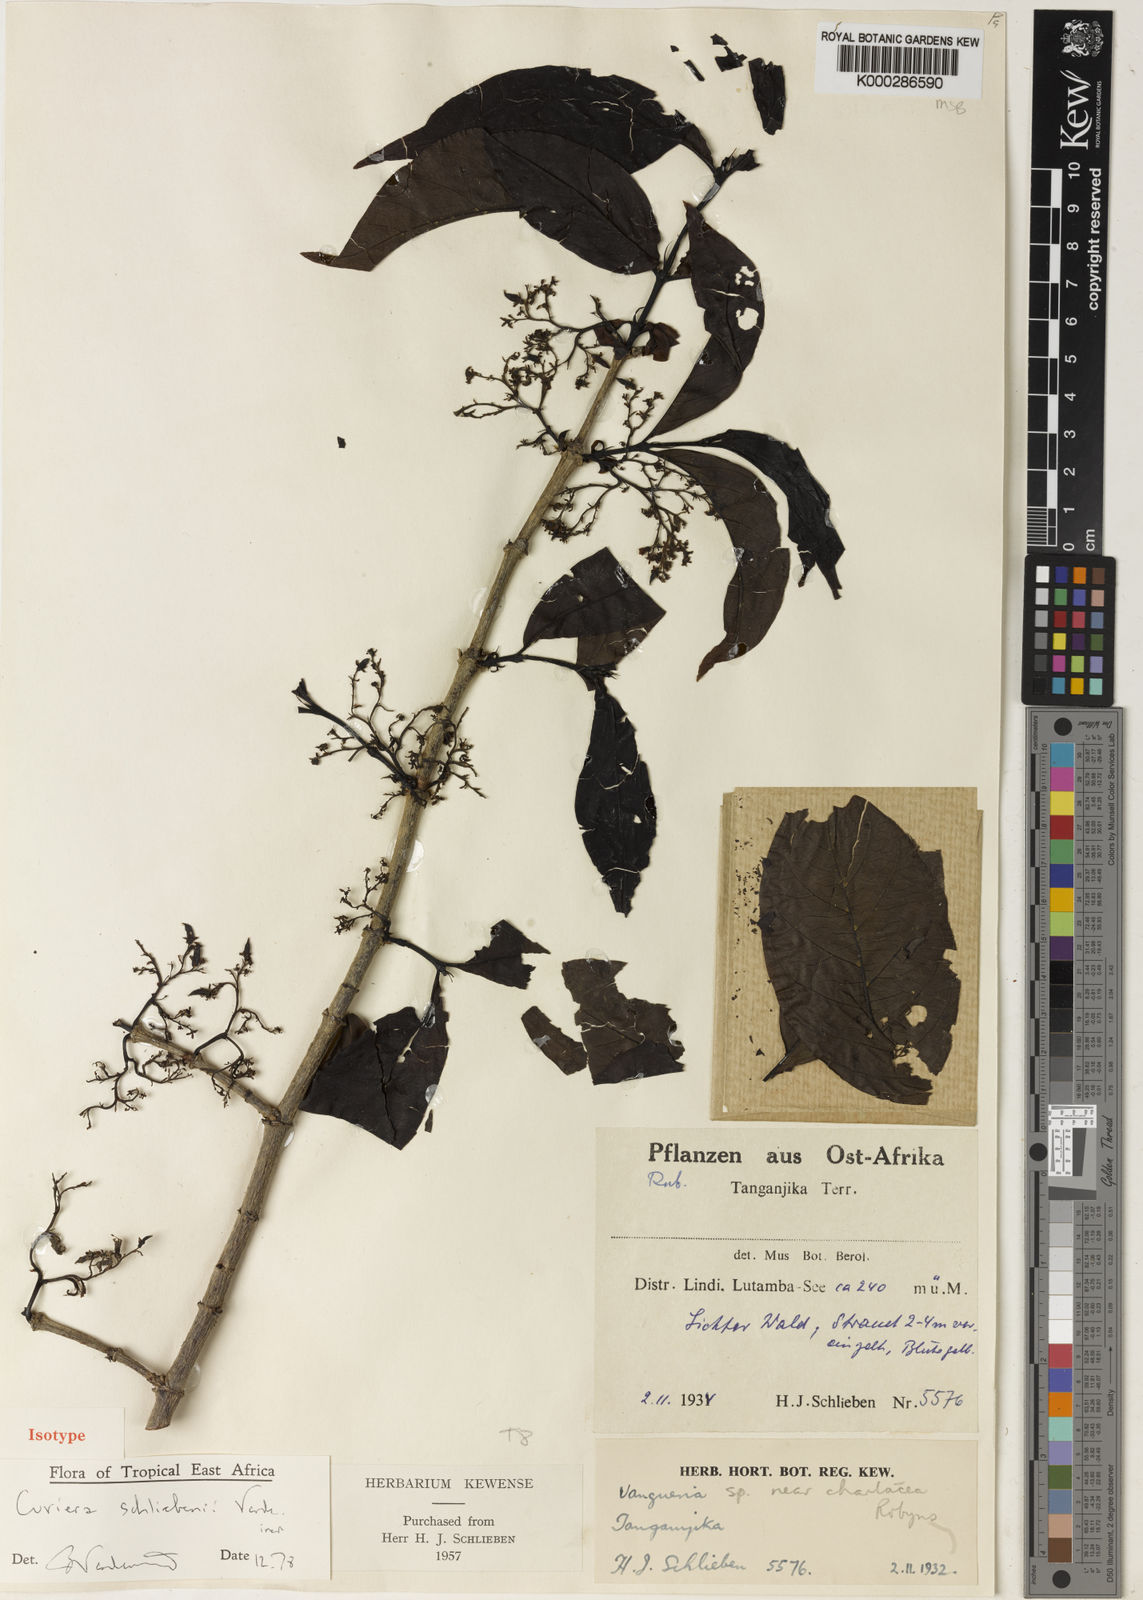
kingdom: Plantae
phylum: Tracheophyta
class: Magnoliopsida
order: Gentianales
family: Rubiaceae
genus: Cuviera
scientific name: Cuviera schliebenii
